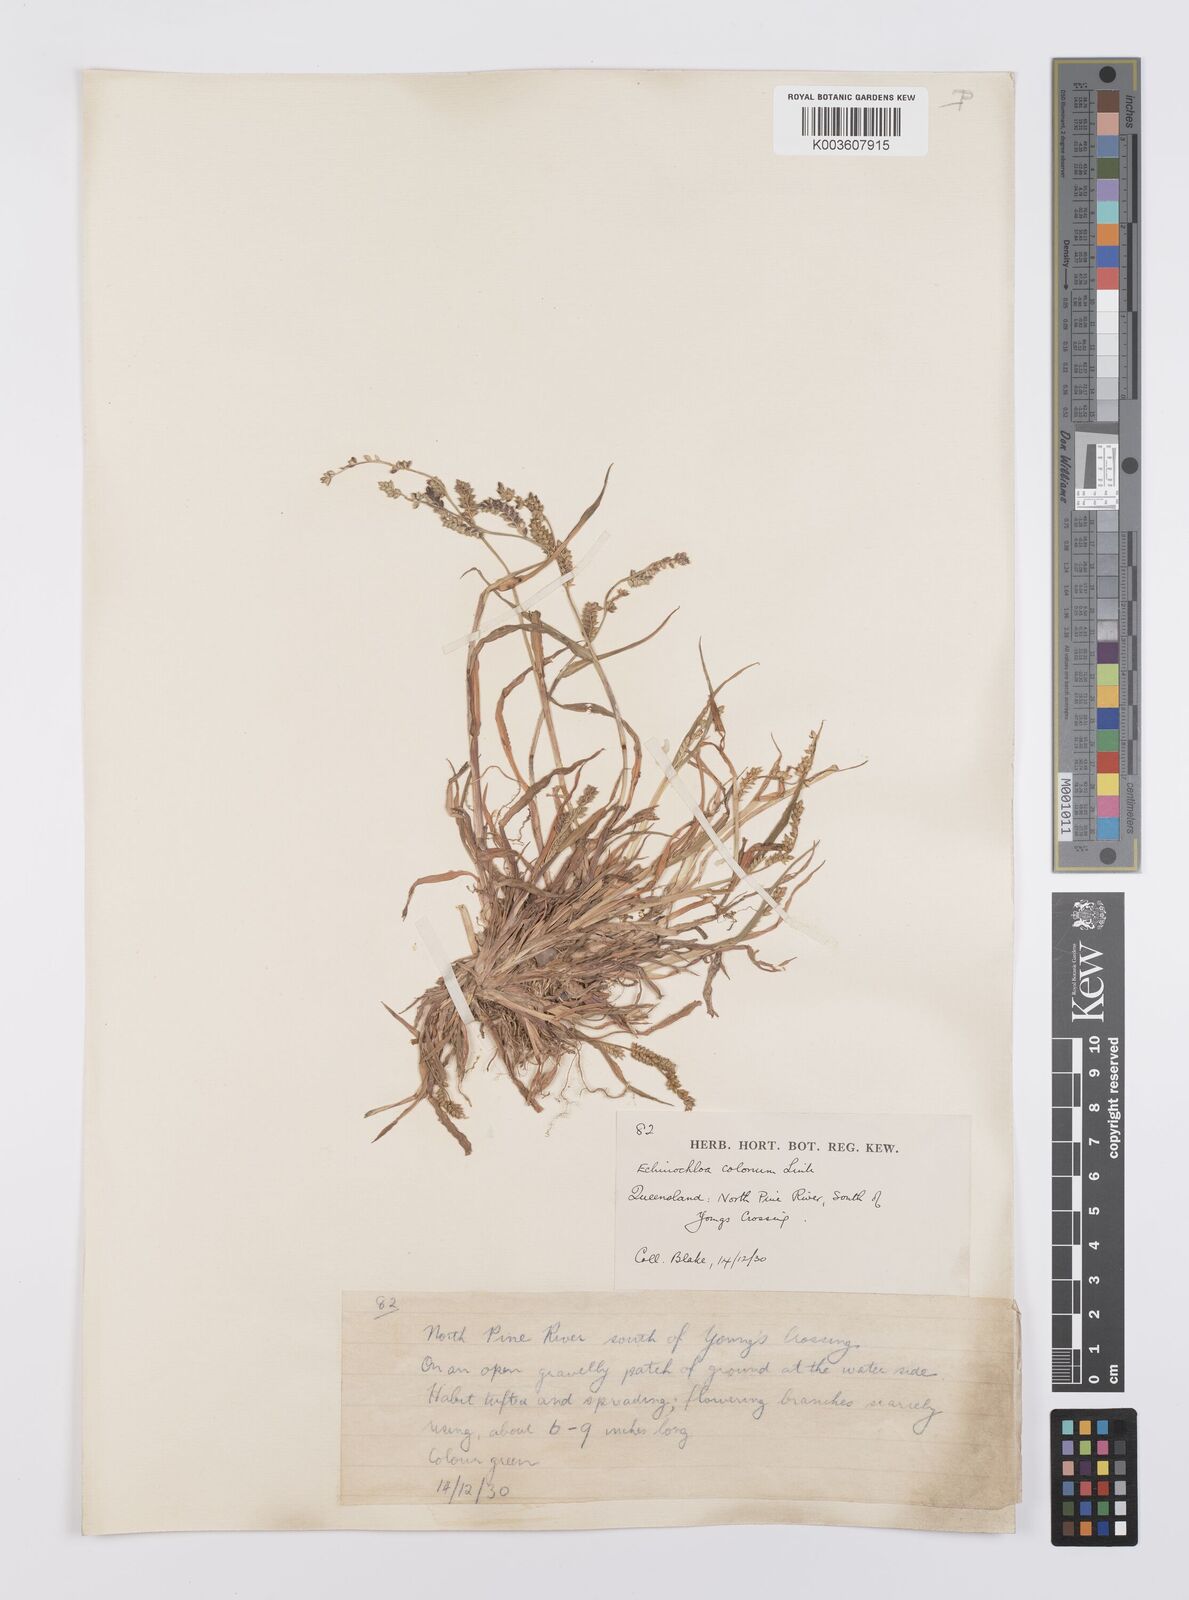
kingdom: Plantae
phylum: Tracheophyta
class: Liliopsida
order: Poales
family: Poaceae
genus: Echinochloa
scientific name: Echinochloa colonum
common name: Jungle rice
